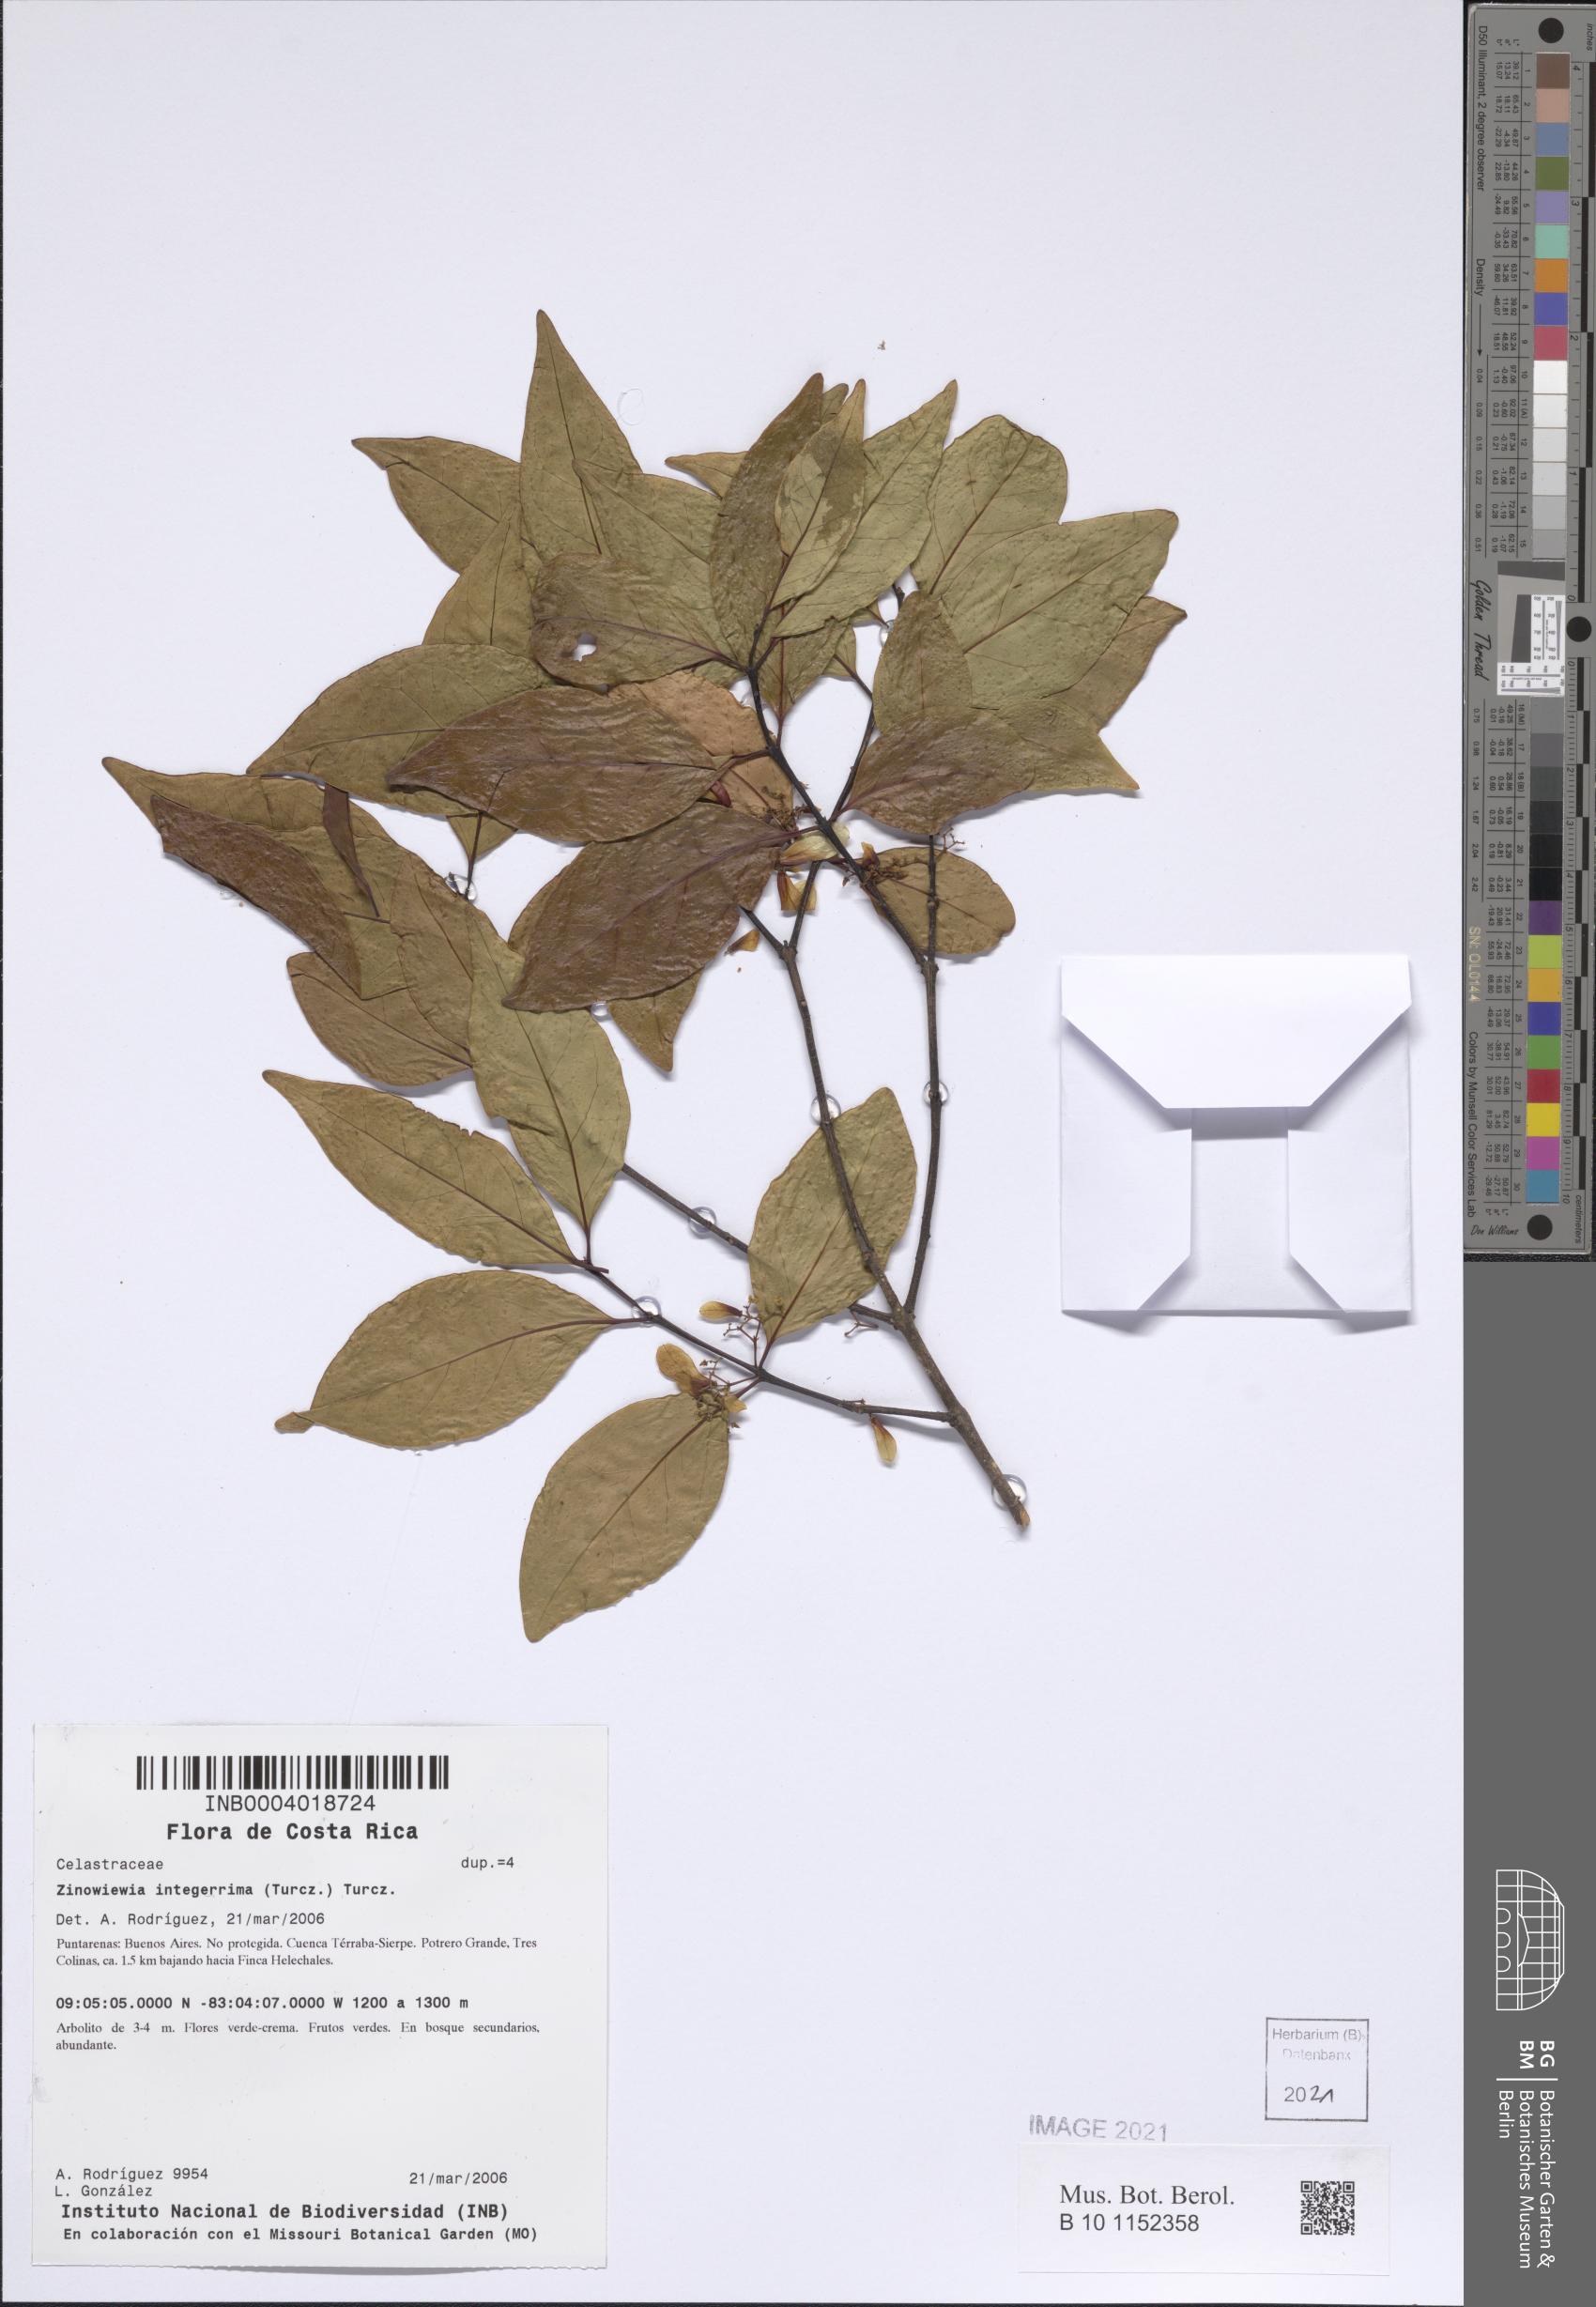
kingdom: Plantae
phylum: Tracheophyta
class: Magnoliopsida
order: Celastrales
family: Celastraceae
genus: Zinowiewia
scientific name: Zinowiewia integerrima
